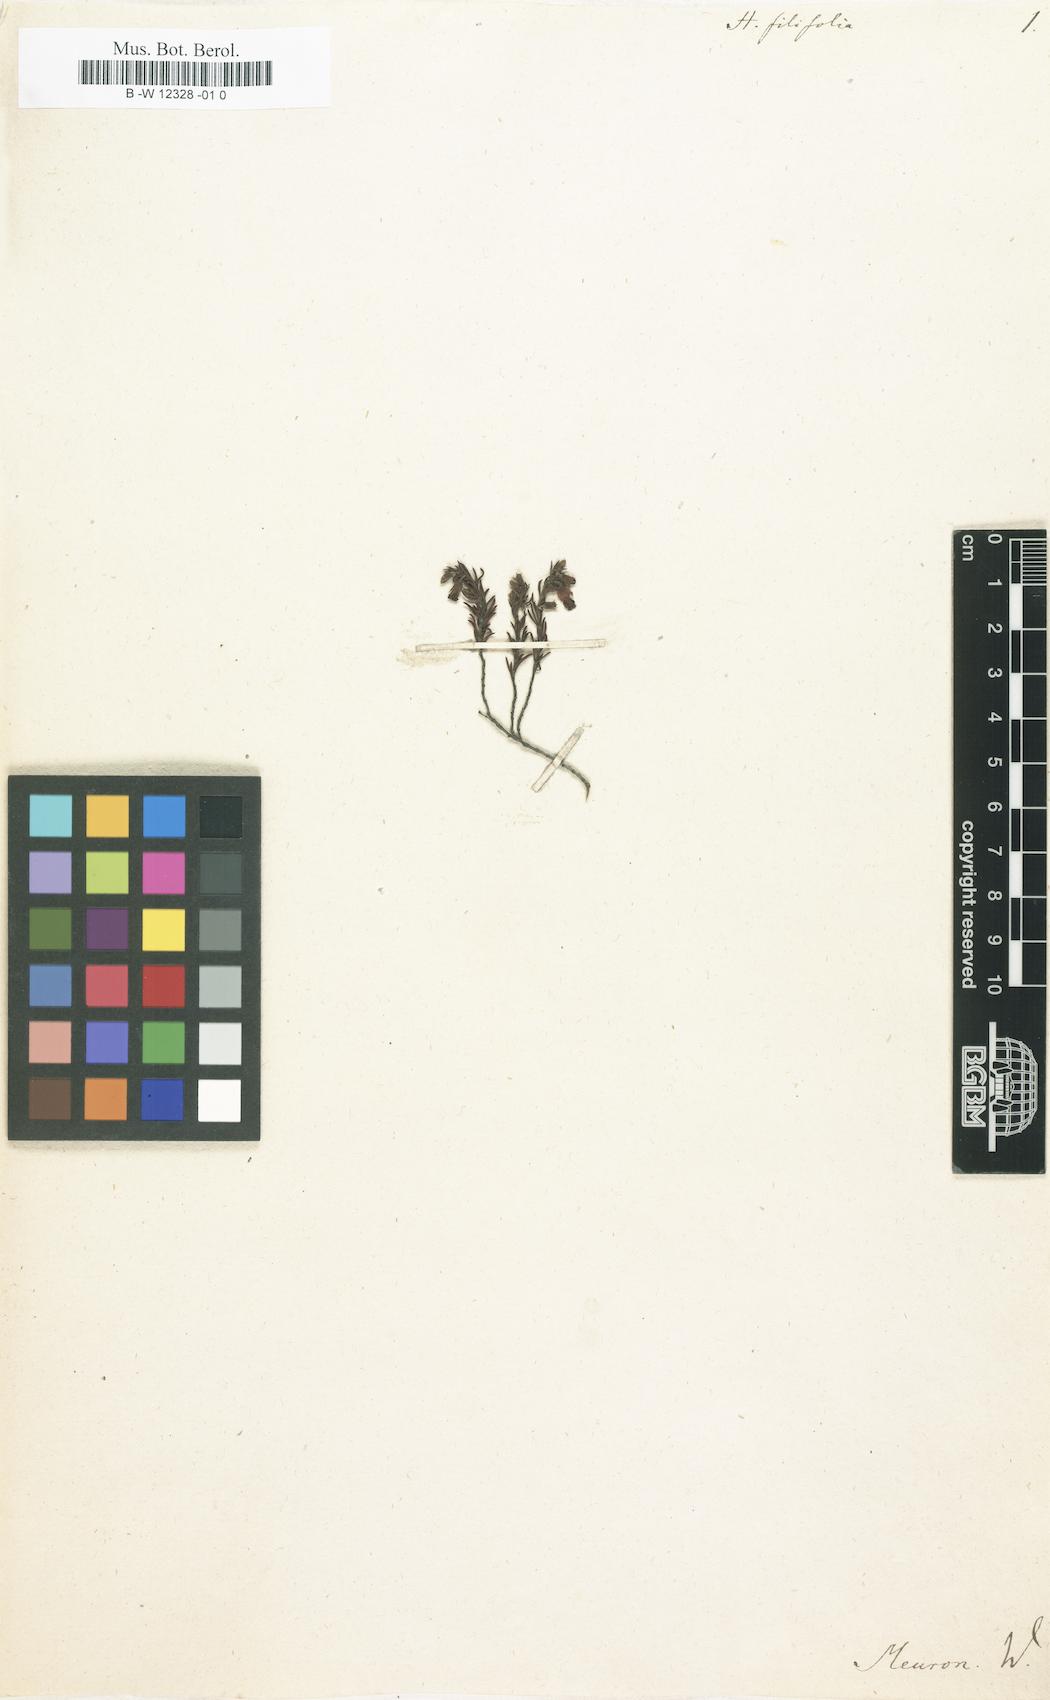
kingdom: Plantae
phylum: Tracheophyta
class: Magnoliopsida
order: Malvales
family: Malvaceae
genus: Hermannia
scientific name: Hermannia filifolia
